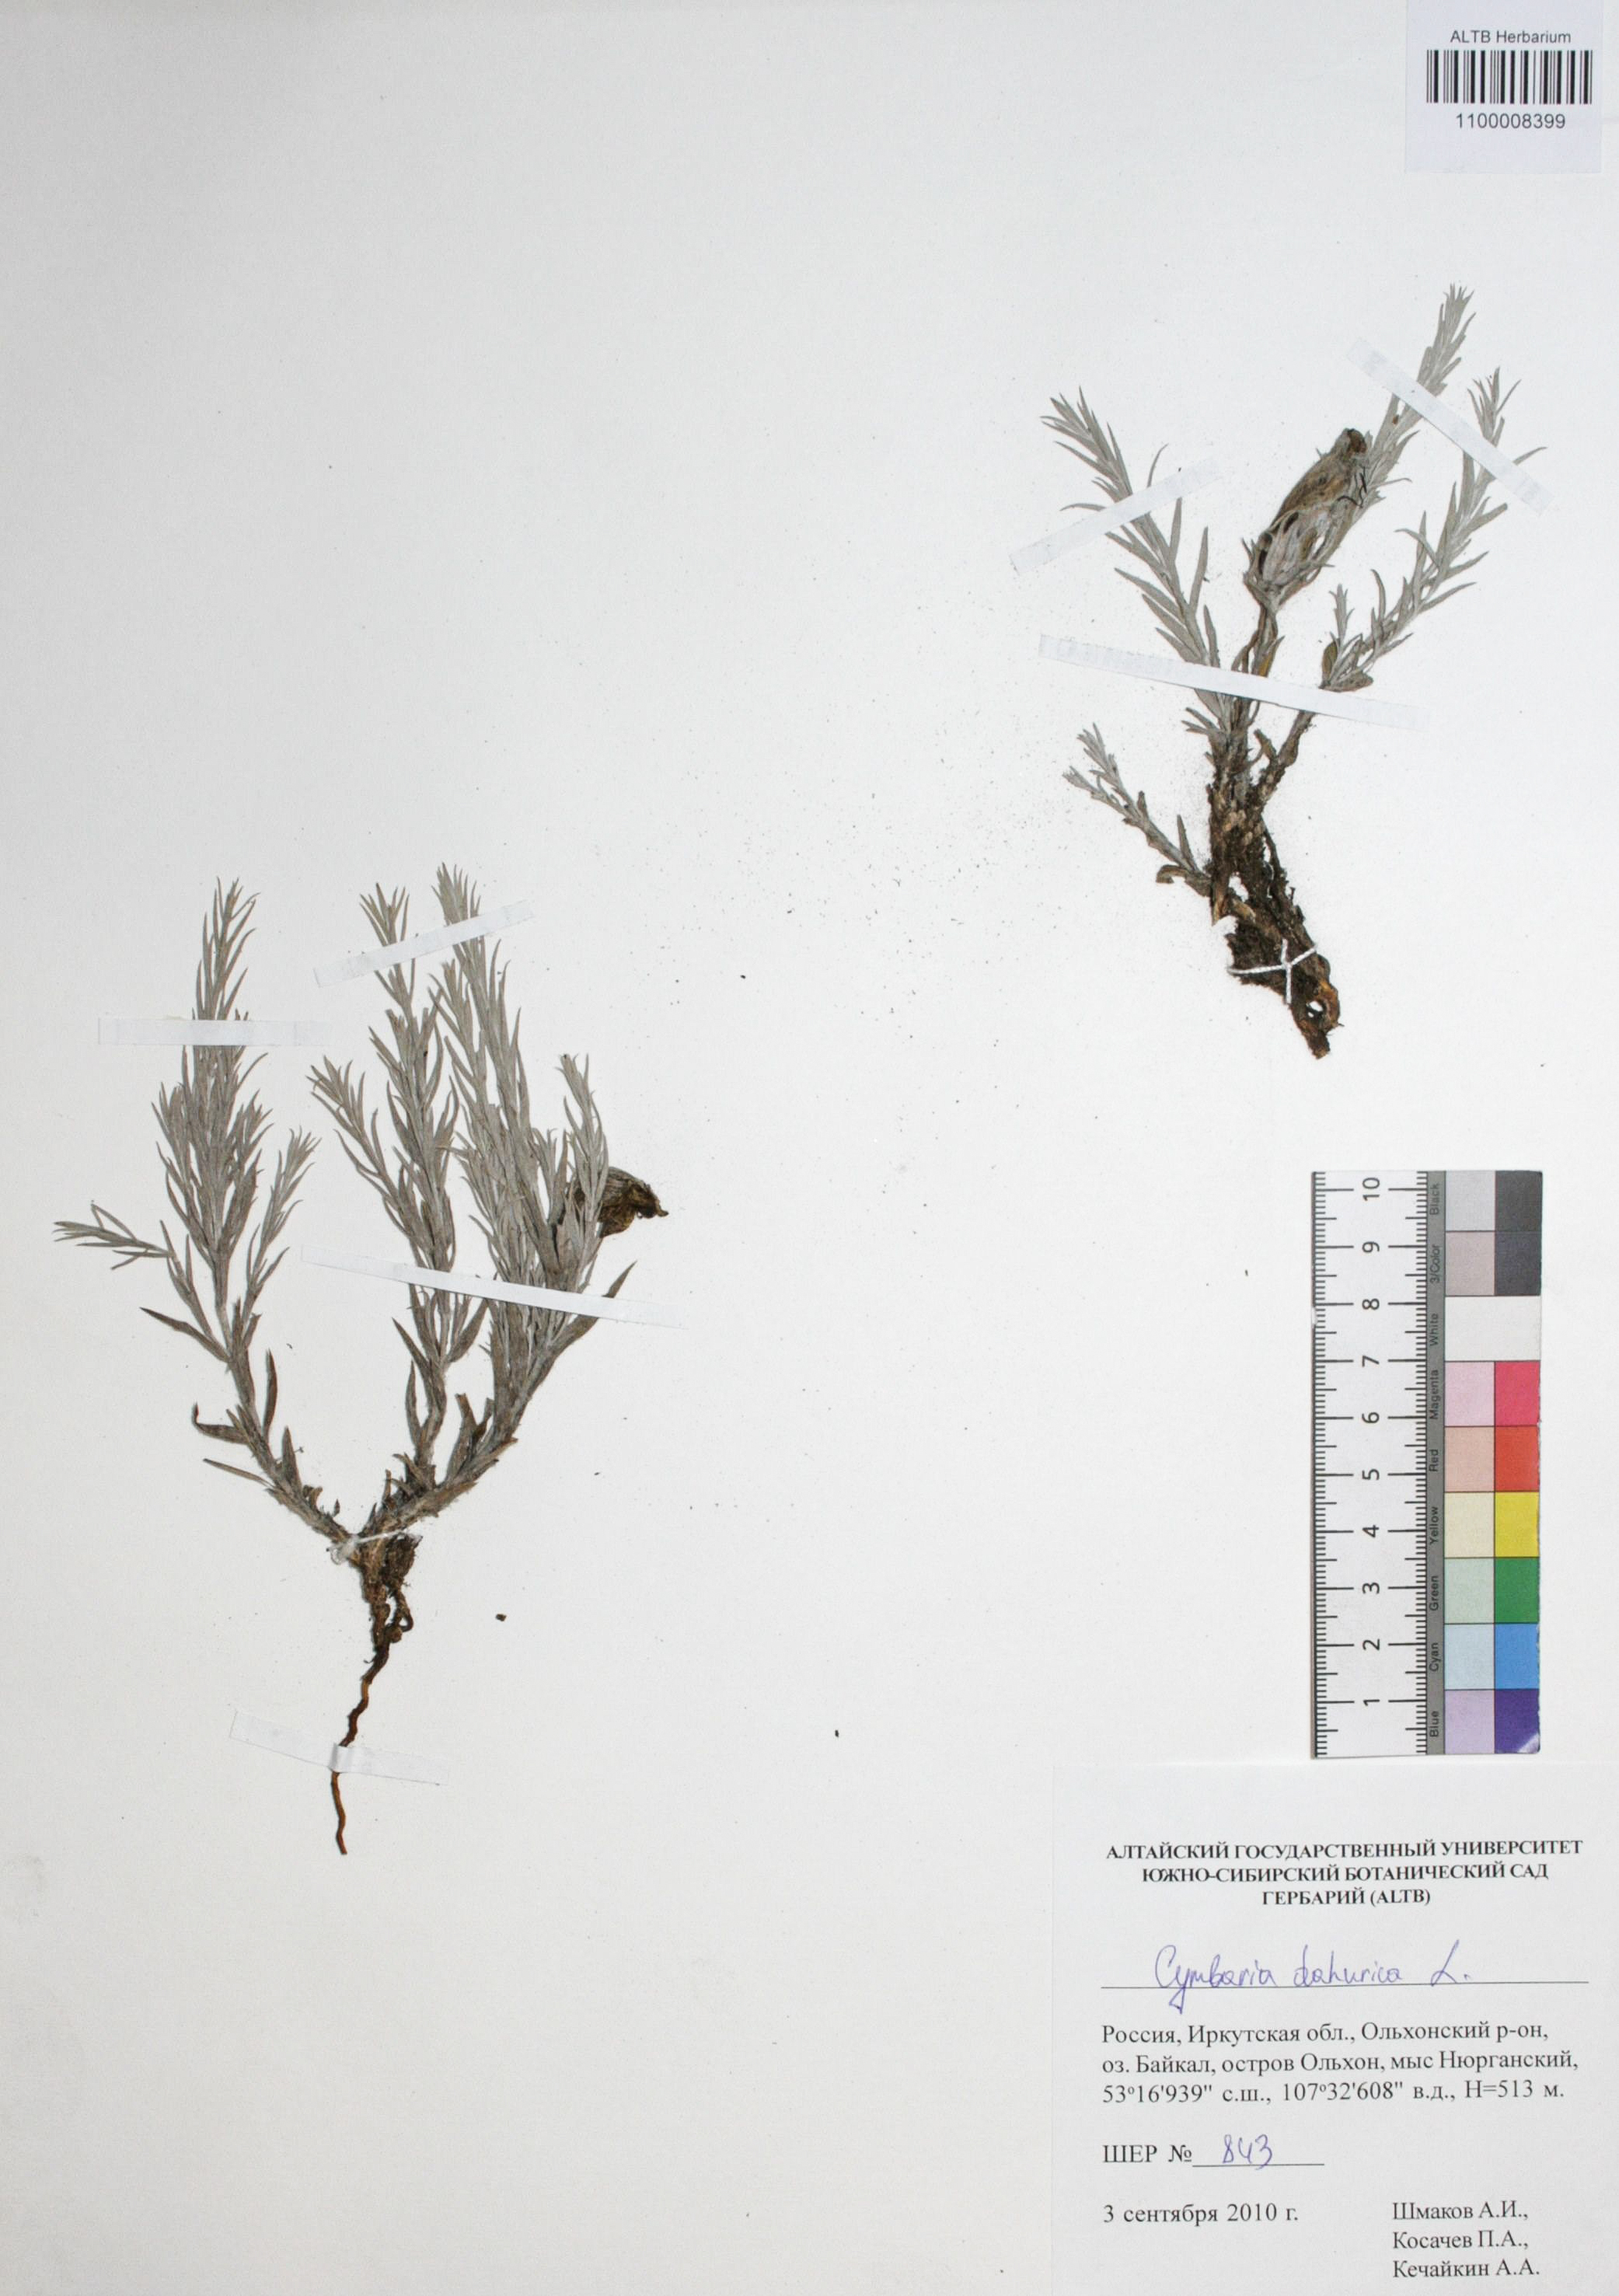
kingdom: Plantae
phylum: Tracheophyta
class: Magnoliopsida
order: Lamiales
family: Orobanchaceae
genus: Cymbaria
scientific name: Cymbaria
